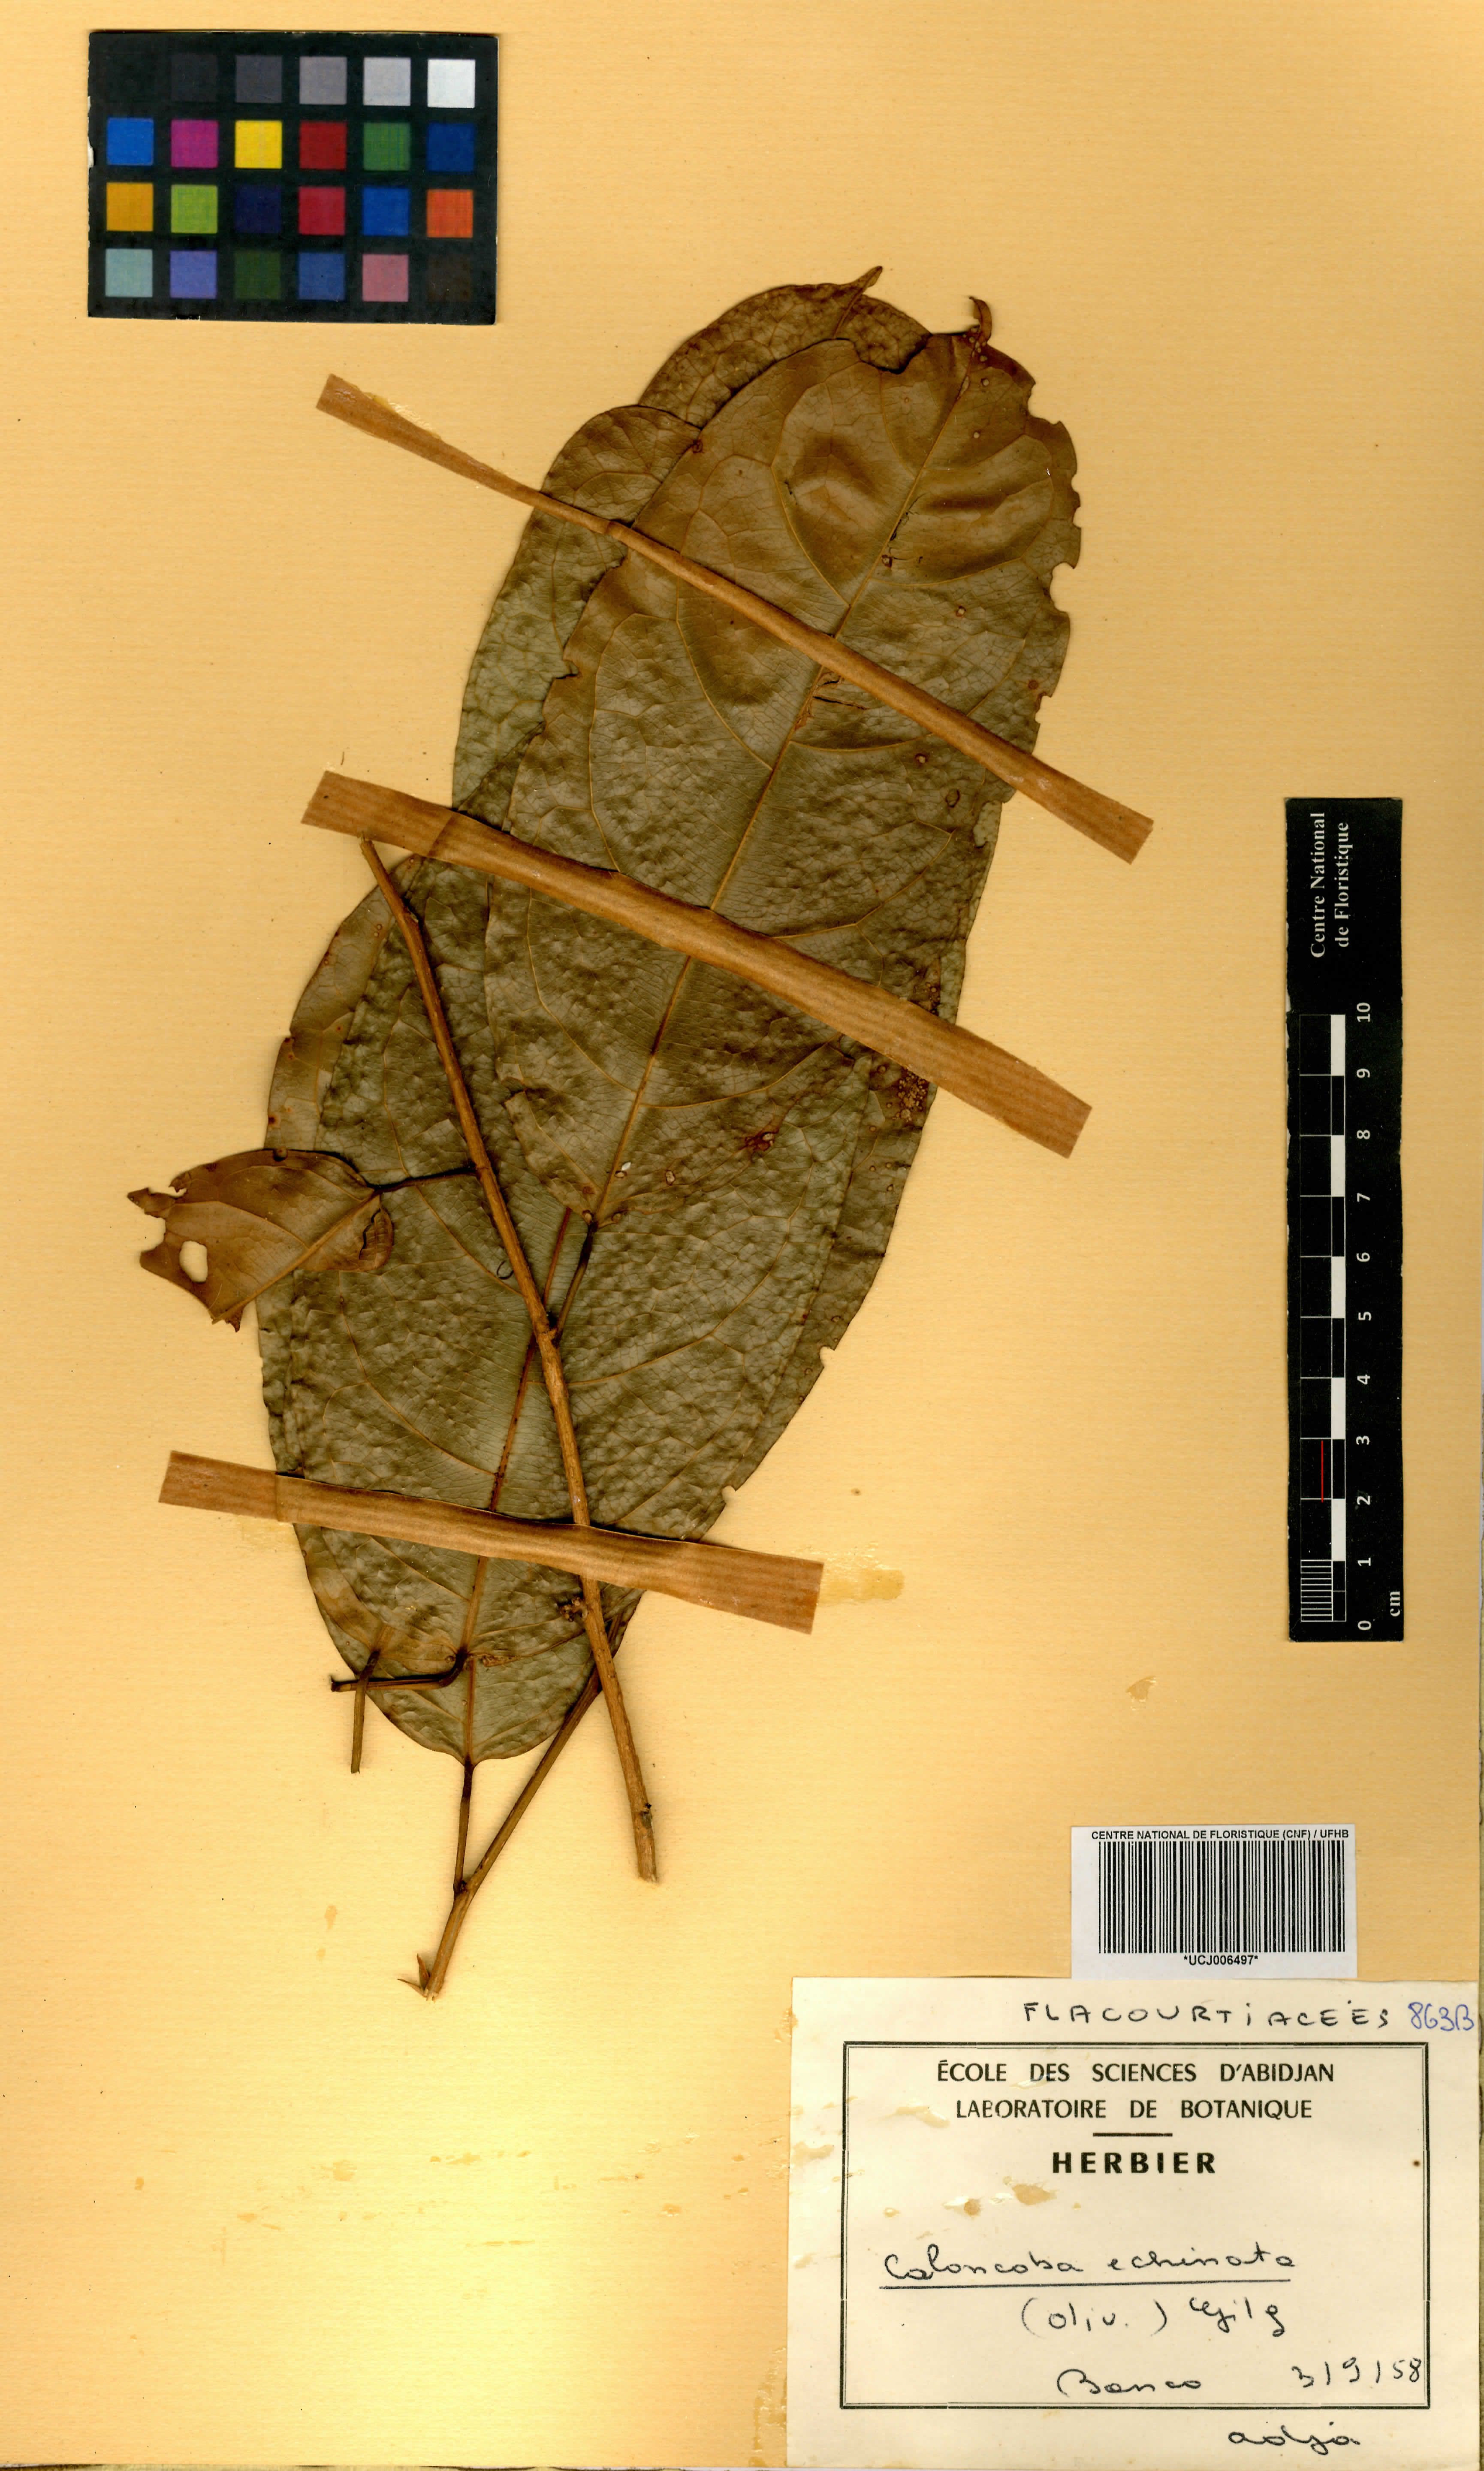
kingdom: Plantae
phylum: Tracheophyta
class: Magnoliopsida
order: Malpighiales
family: Achariaceae
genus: Caloncoba
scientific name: Caloncoba echinata
